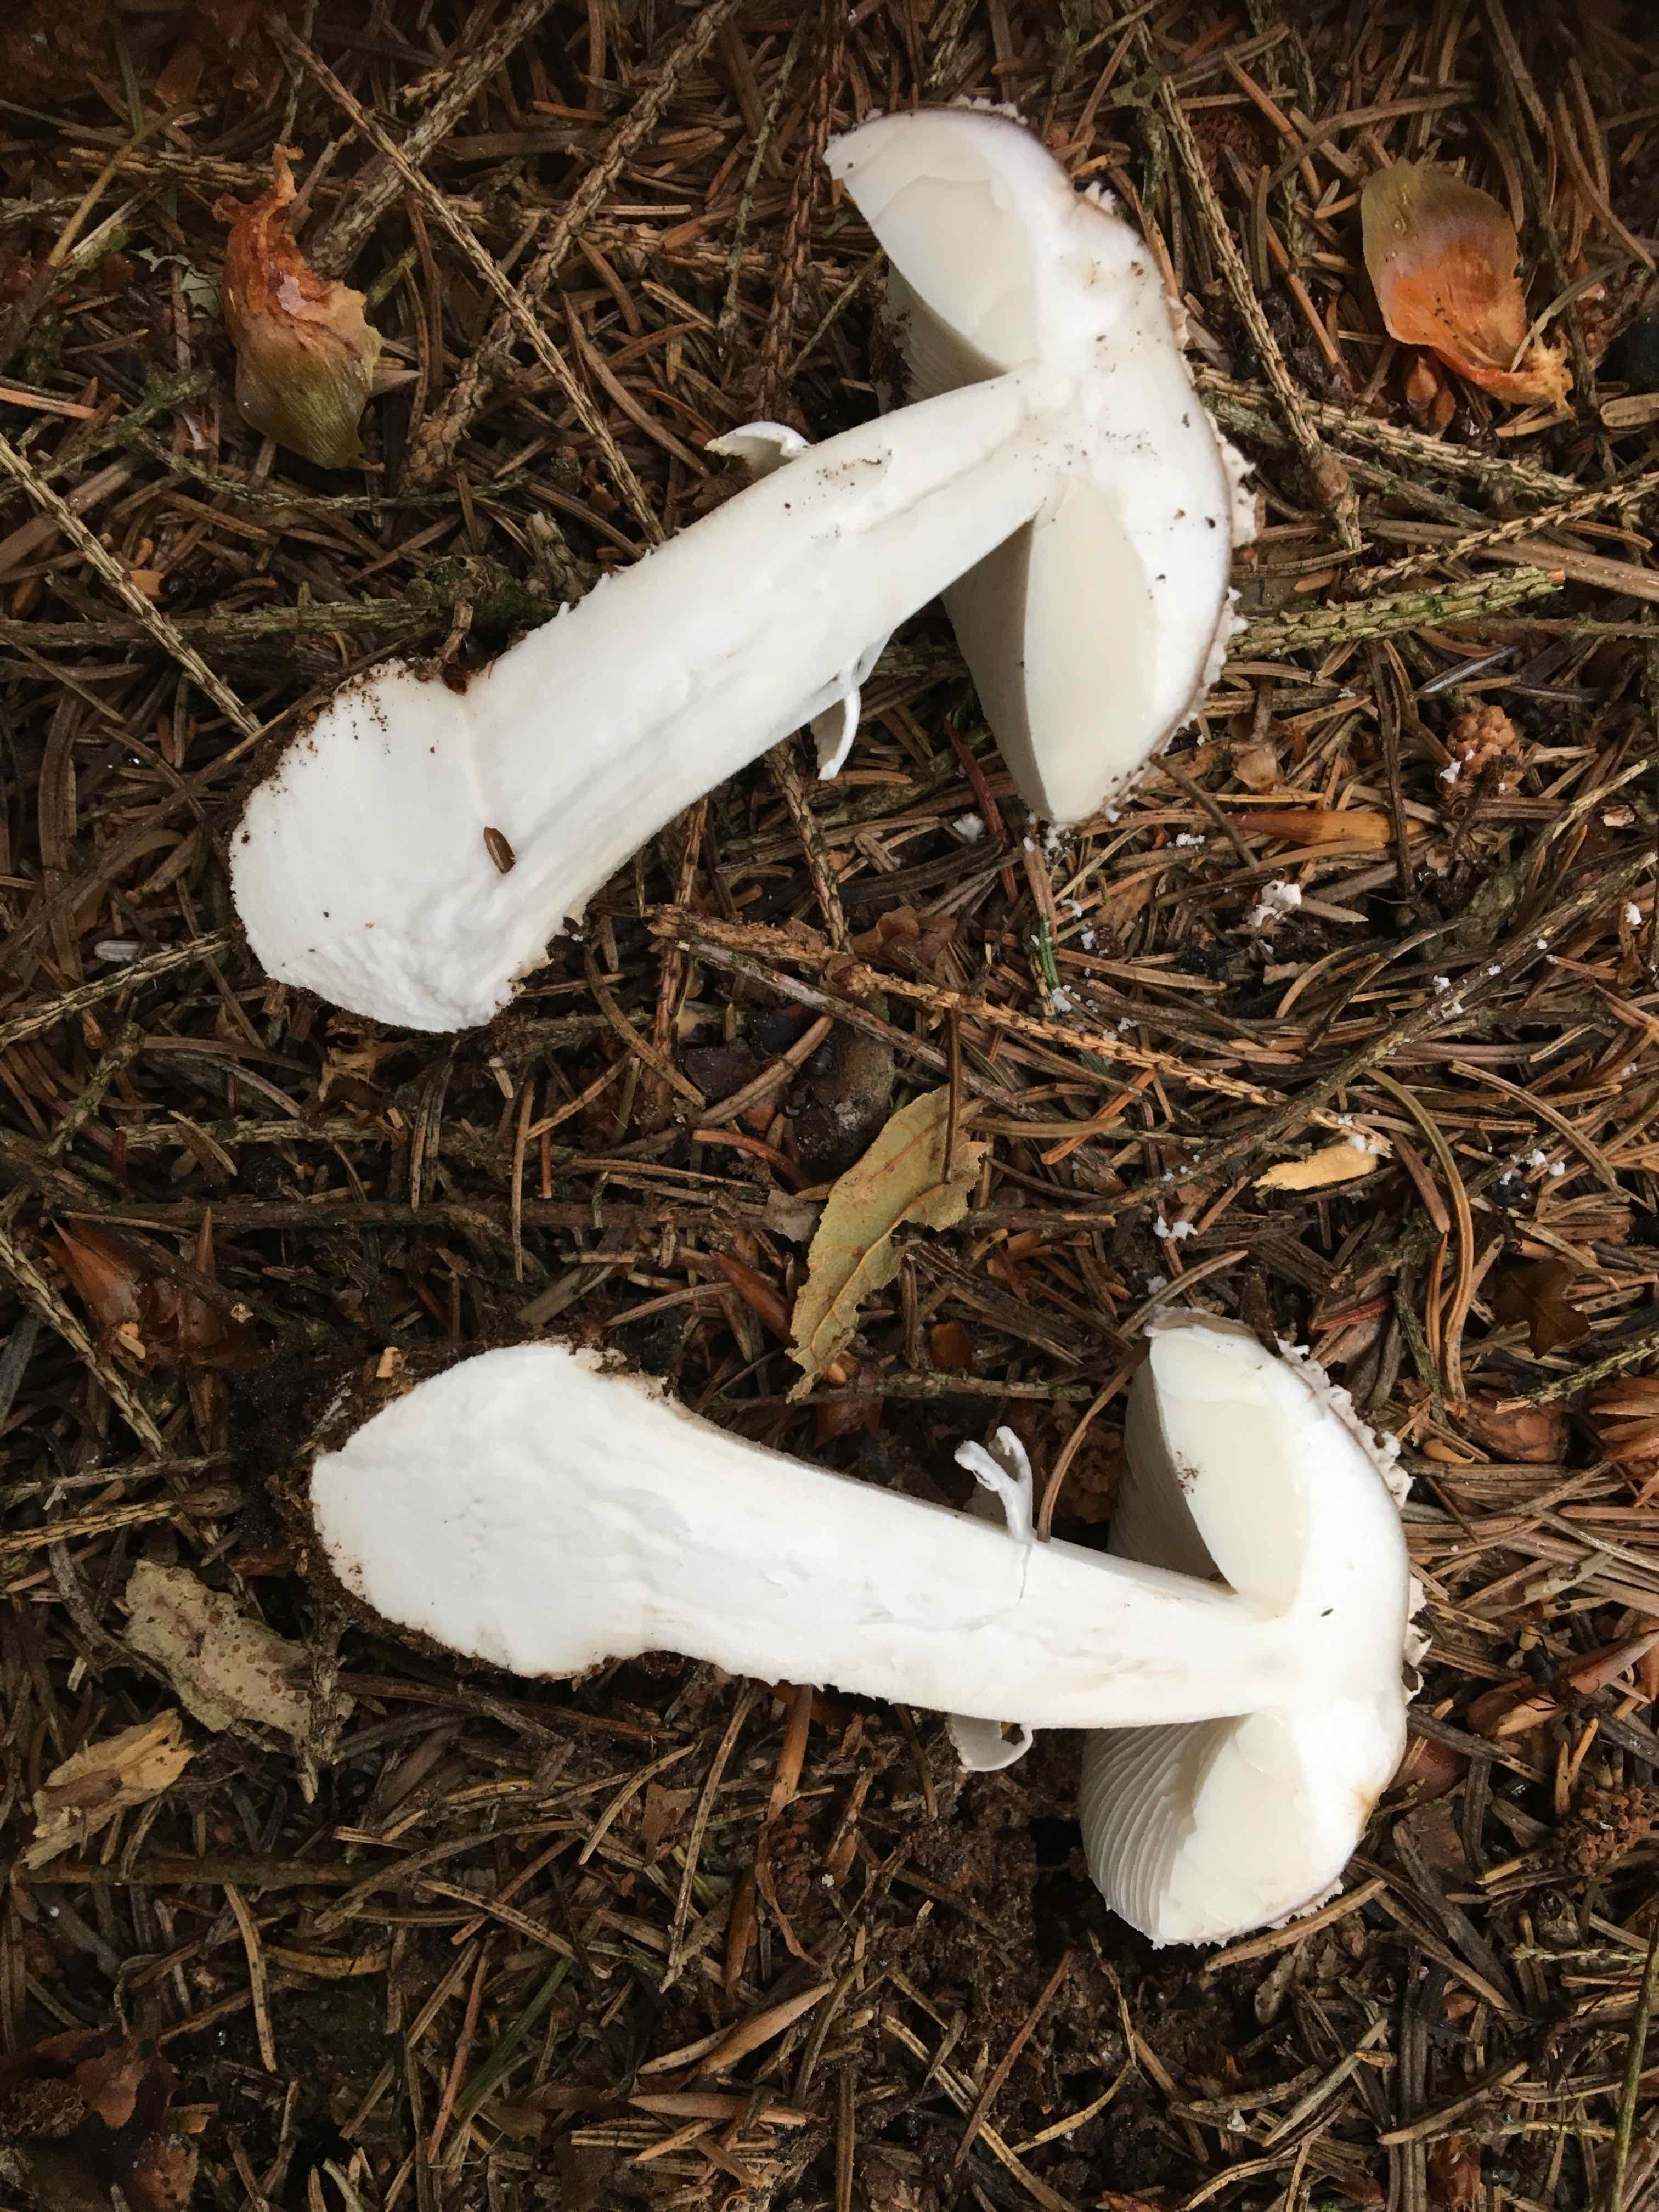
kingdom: Fungi
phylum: Basidiomycota
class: Agaricomycetes
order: Agaricales
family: Amanitaceae
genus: Amanita
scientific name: Amanita
